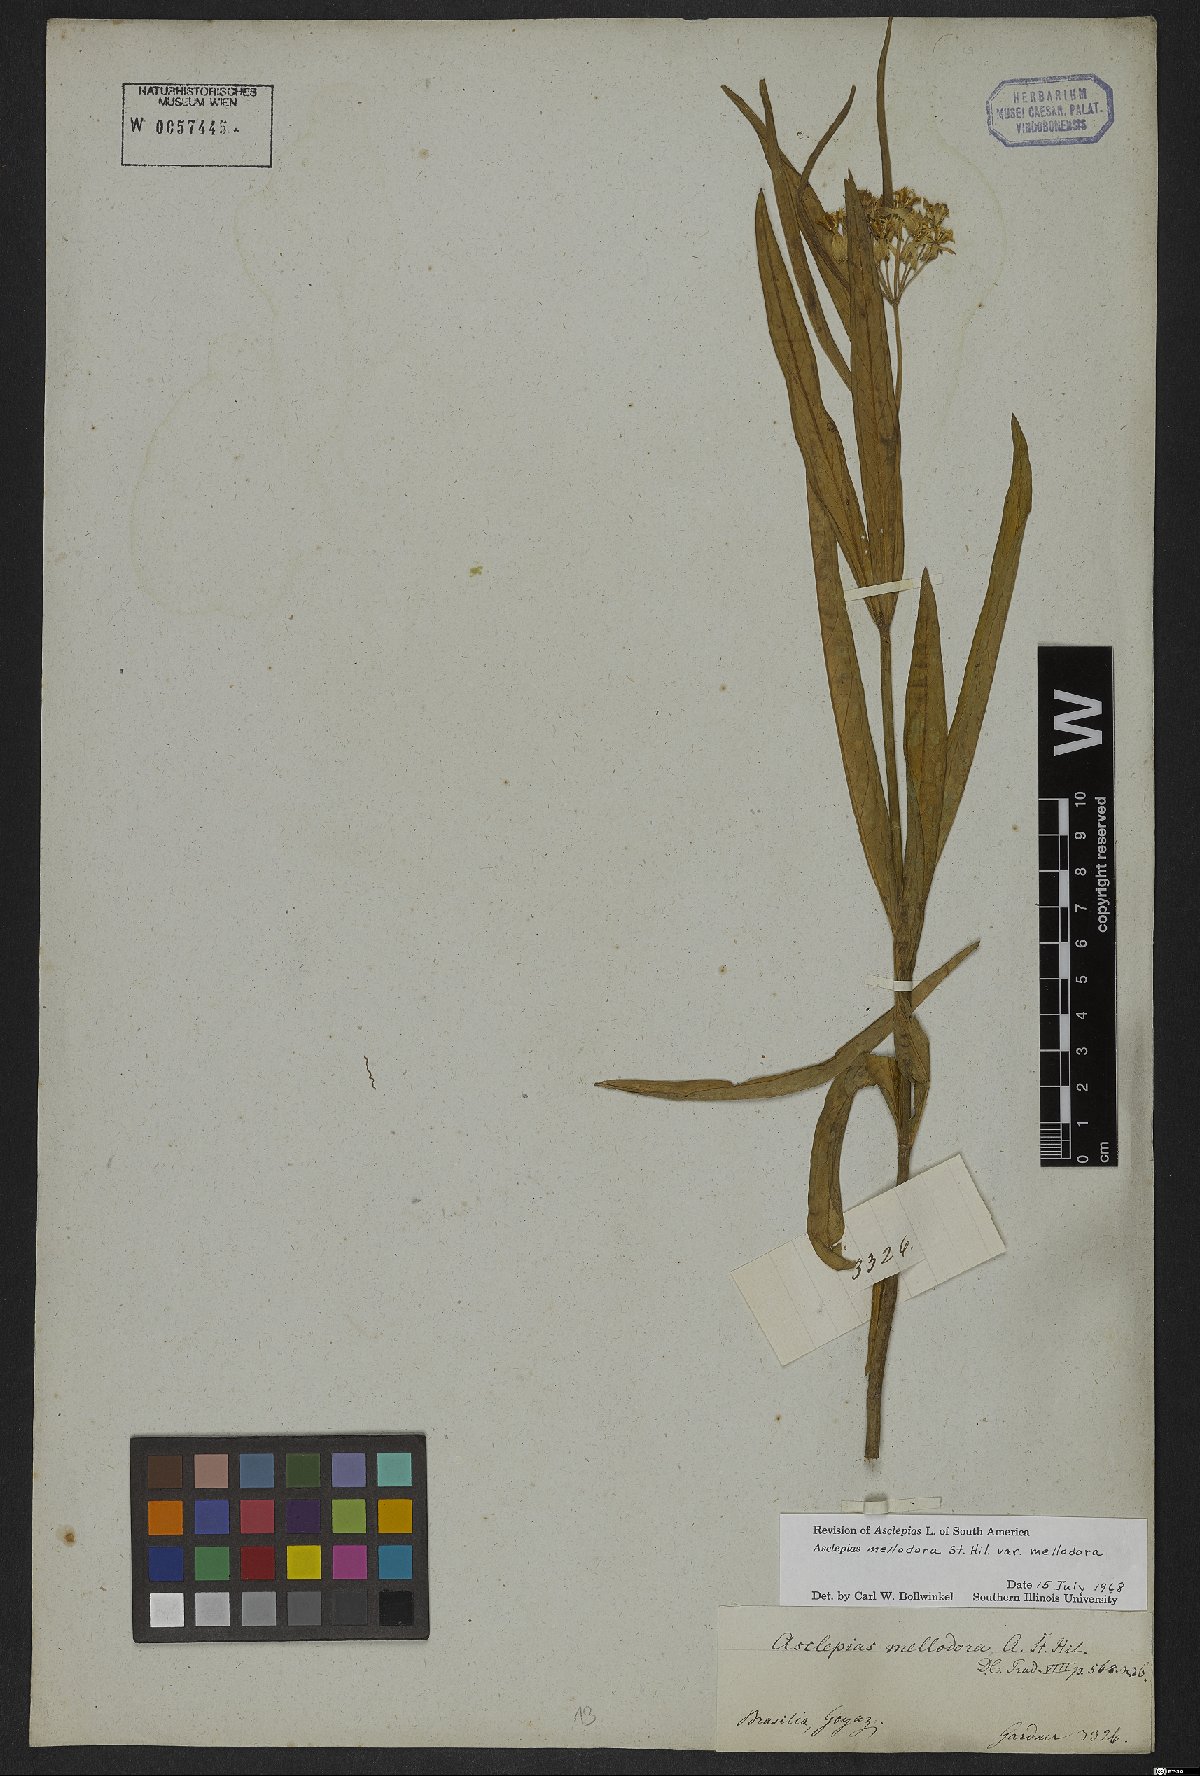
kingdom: Plantae
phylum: Tracheophyta
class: Magnoliopsida
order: Gentianales
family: Apocynaceae
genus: Asclepias
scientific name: Asclepias mellodora
